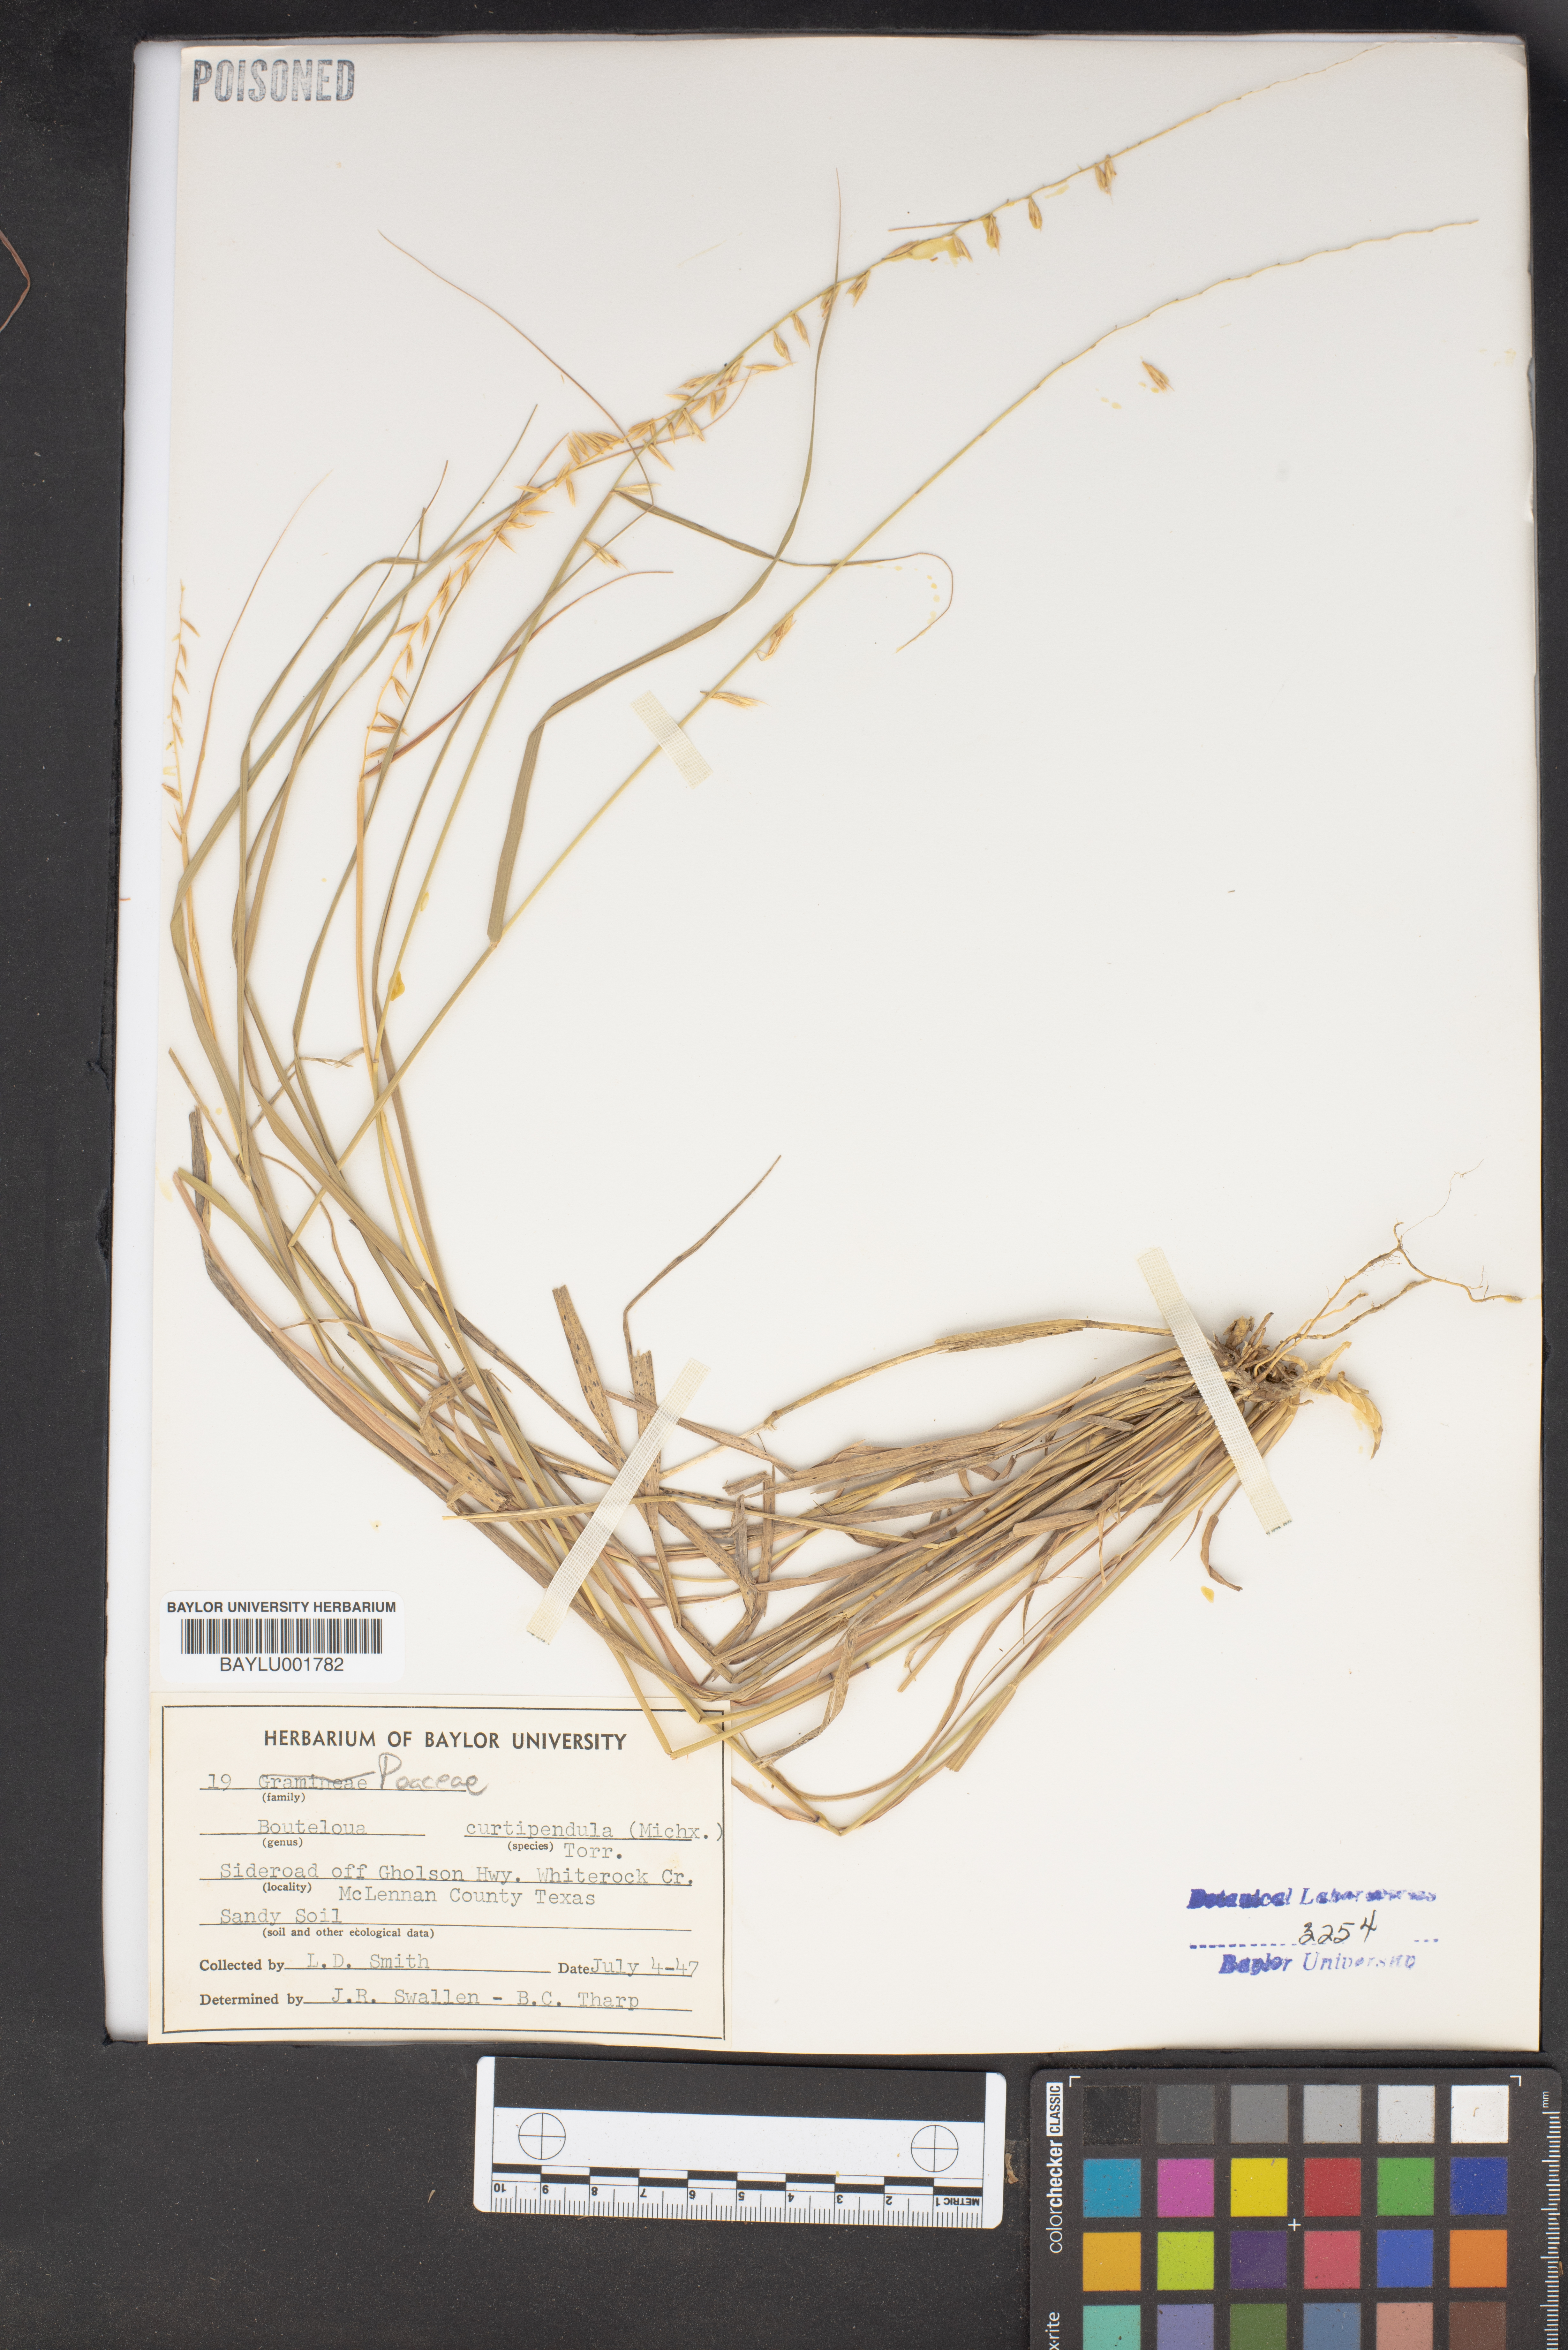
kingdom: Plantae
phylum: Tracheophyta
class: Liliopsida
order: Poales
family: Poaceae
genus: Bouteloua
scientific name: Bouteloua curtipendula
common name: Side-oats grama
